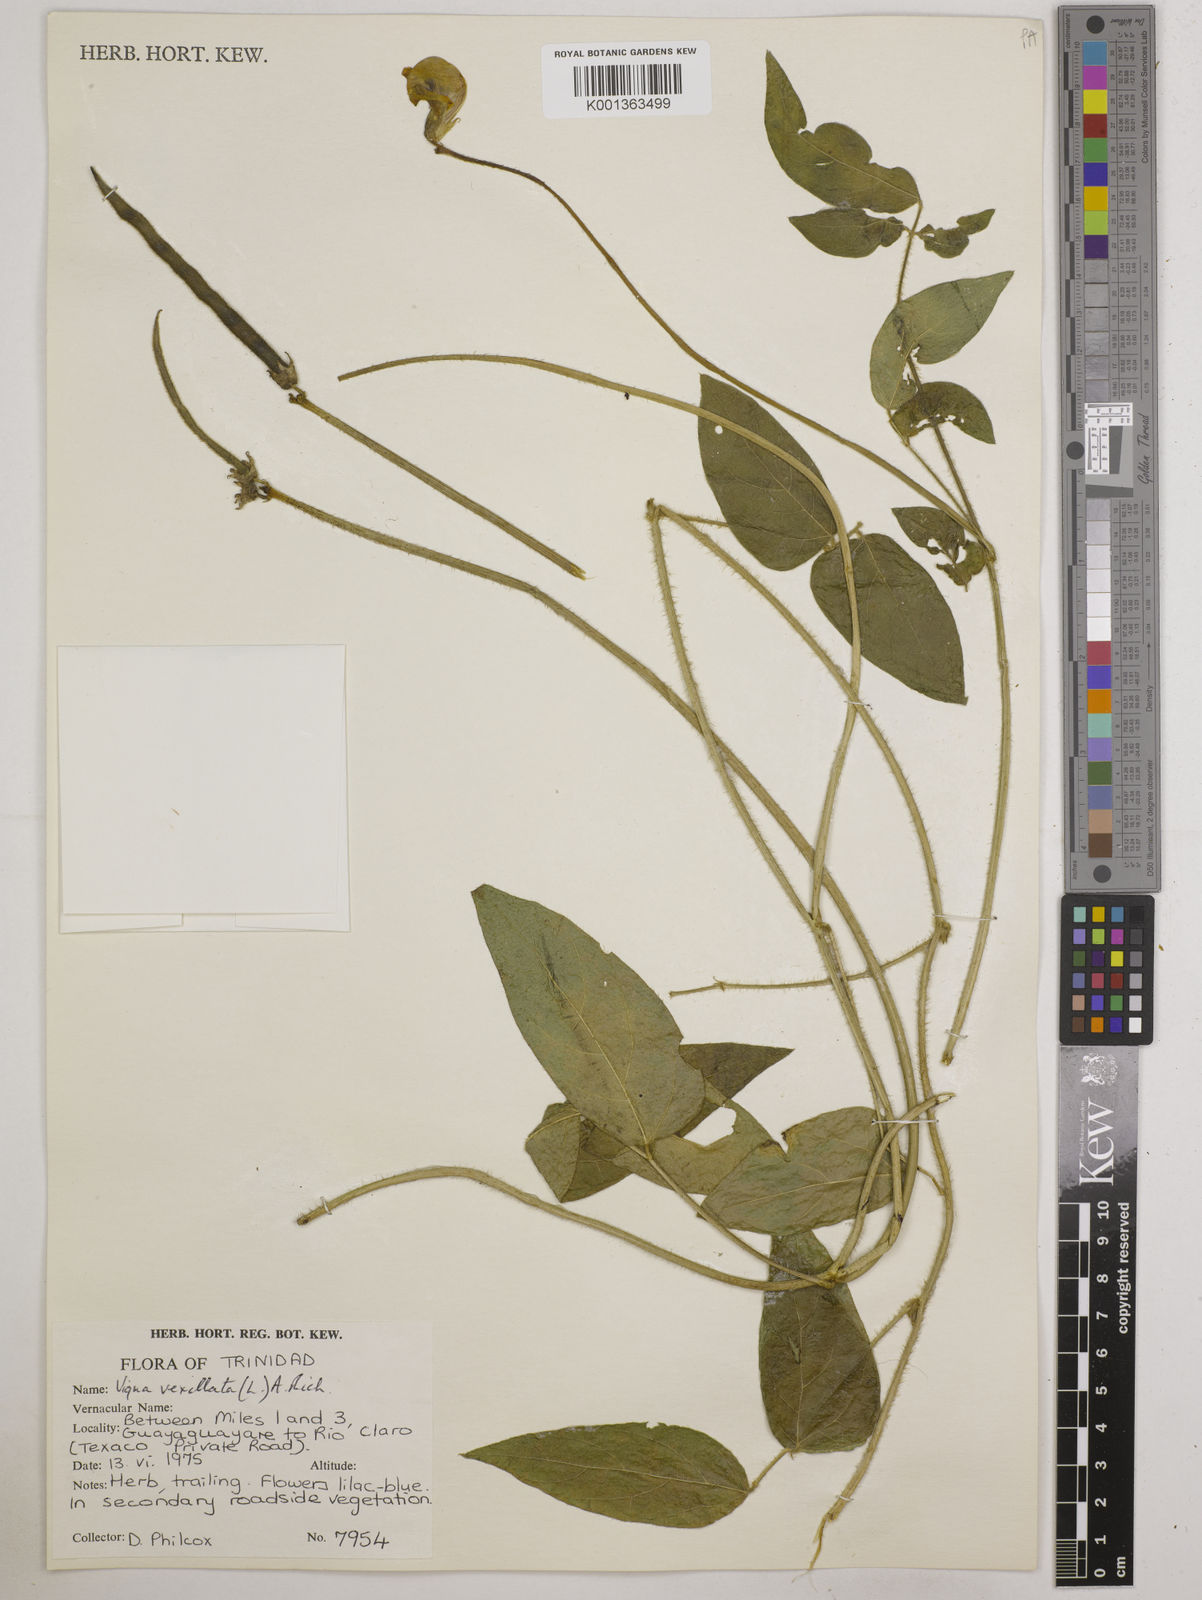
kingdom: Plantae
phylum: Tracheophyta
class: Magnoliopsida
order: Fabales
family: Fabaceae
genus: Vigna
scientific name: Vigna vexillata
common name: Zombi pea
